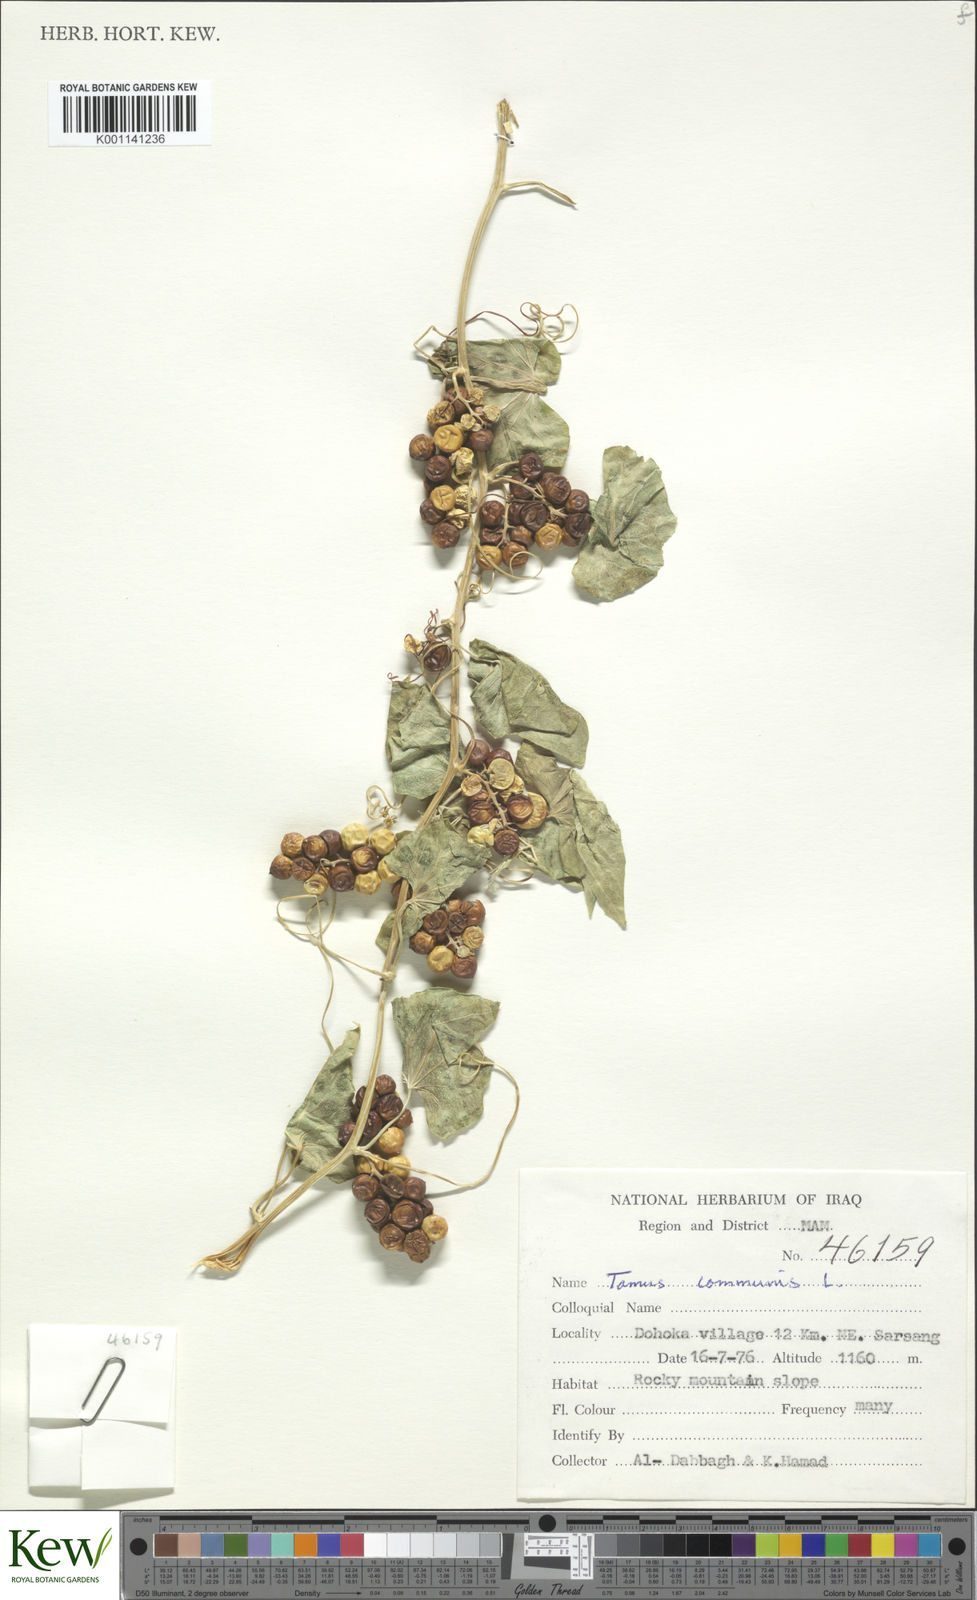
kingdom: Plantae
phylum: Tracheophyta
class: Liliopsida
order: Dioscoreales
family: Dioscoreaceae
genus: Dioscorea
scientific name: Dioscorea communis
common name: Black-bindweed
